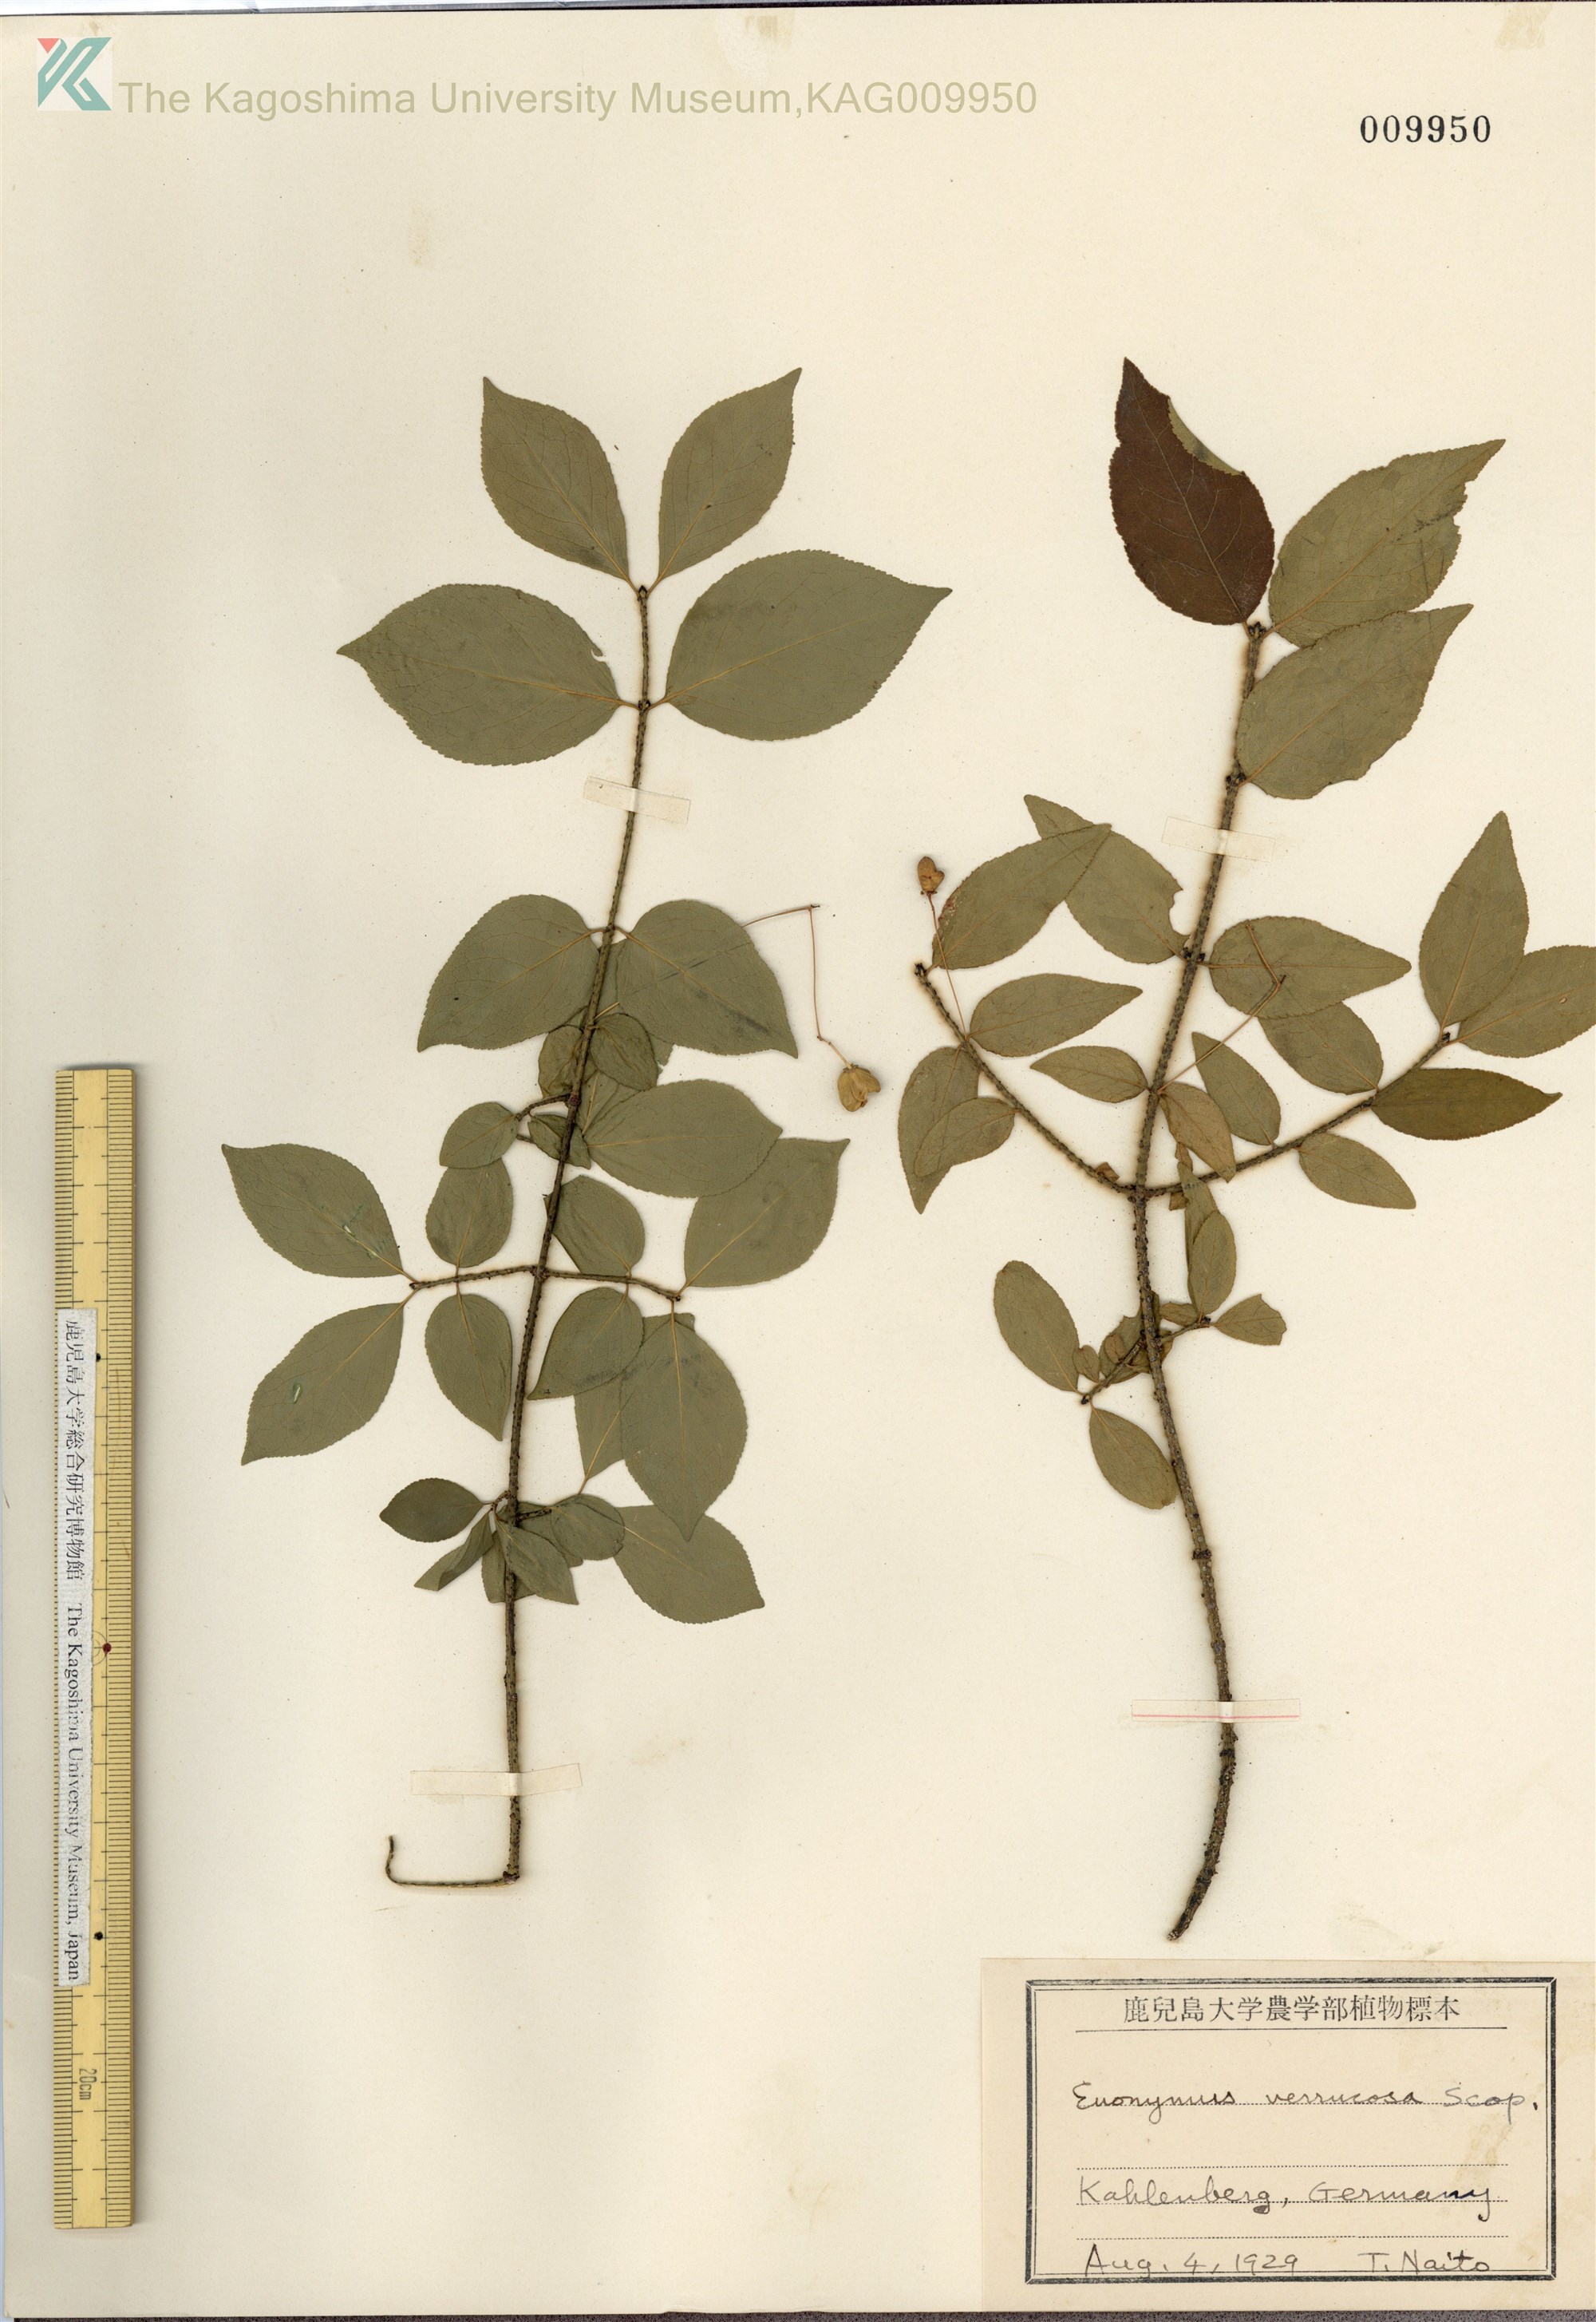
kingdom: Plantae
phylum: Tracheophyta
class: Magnoliopsida
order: Celastrales
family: Celastraceae
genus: Euonymus
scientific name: Euonymus verrucosus
